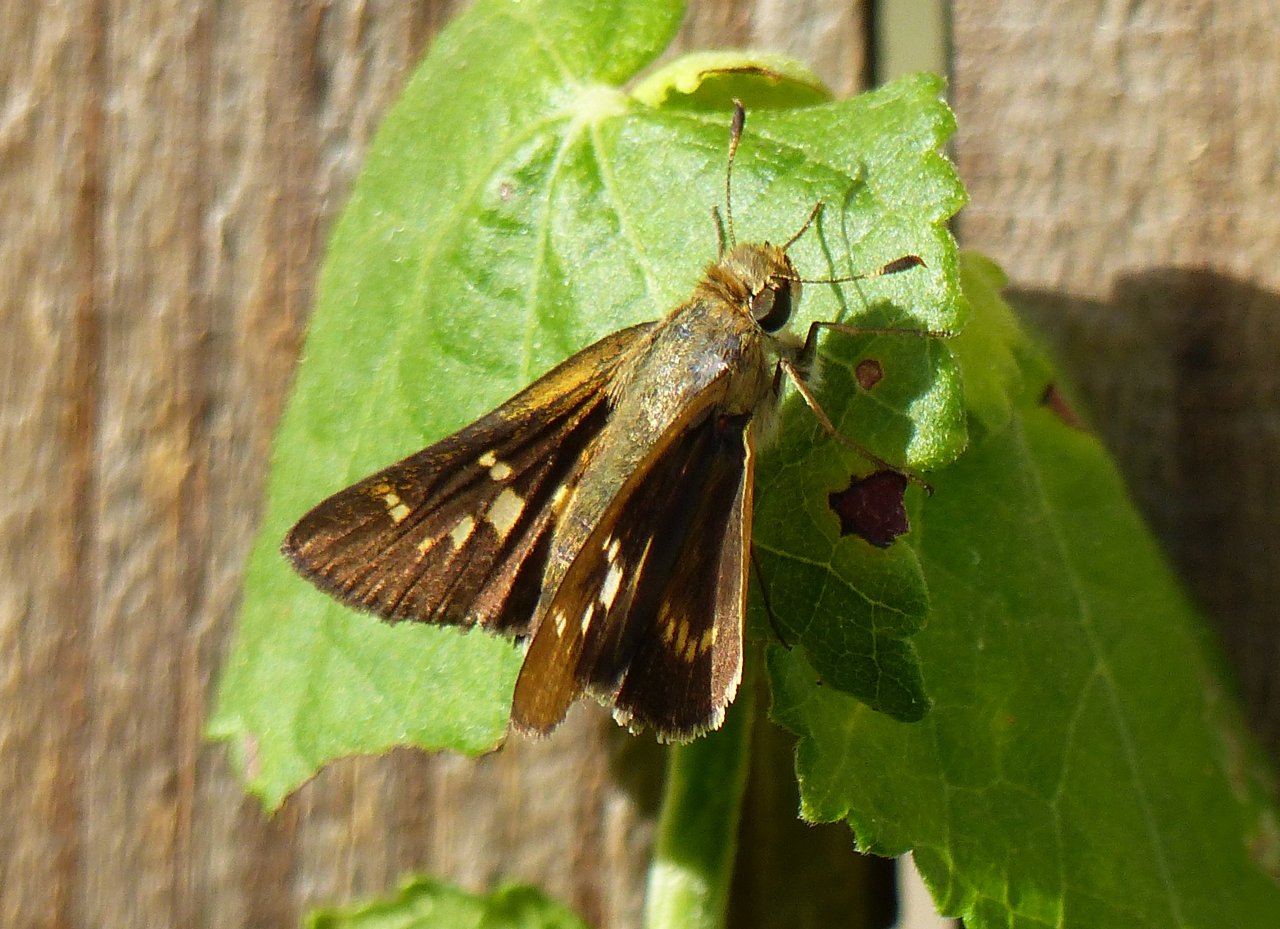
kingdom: Animalia
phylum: Arthropoda
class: Insecta
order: Lepidoptera
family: Hesperiidae
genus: Atalopedes
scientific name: Atalopedes campestris
